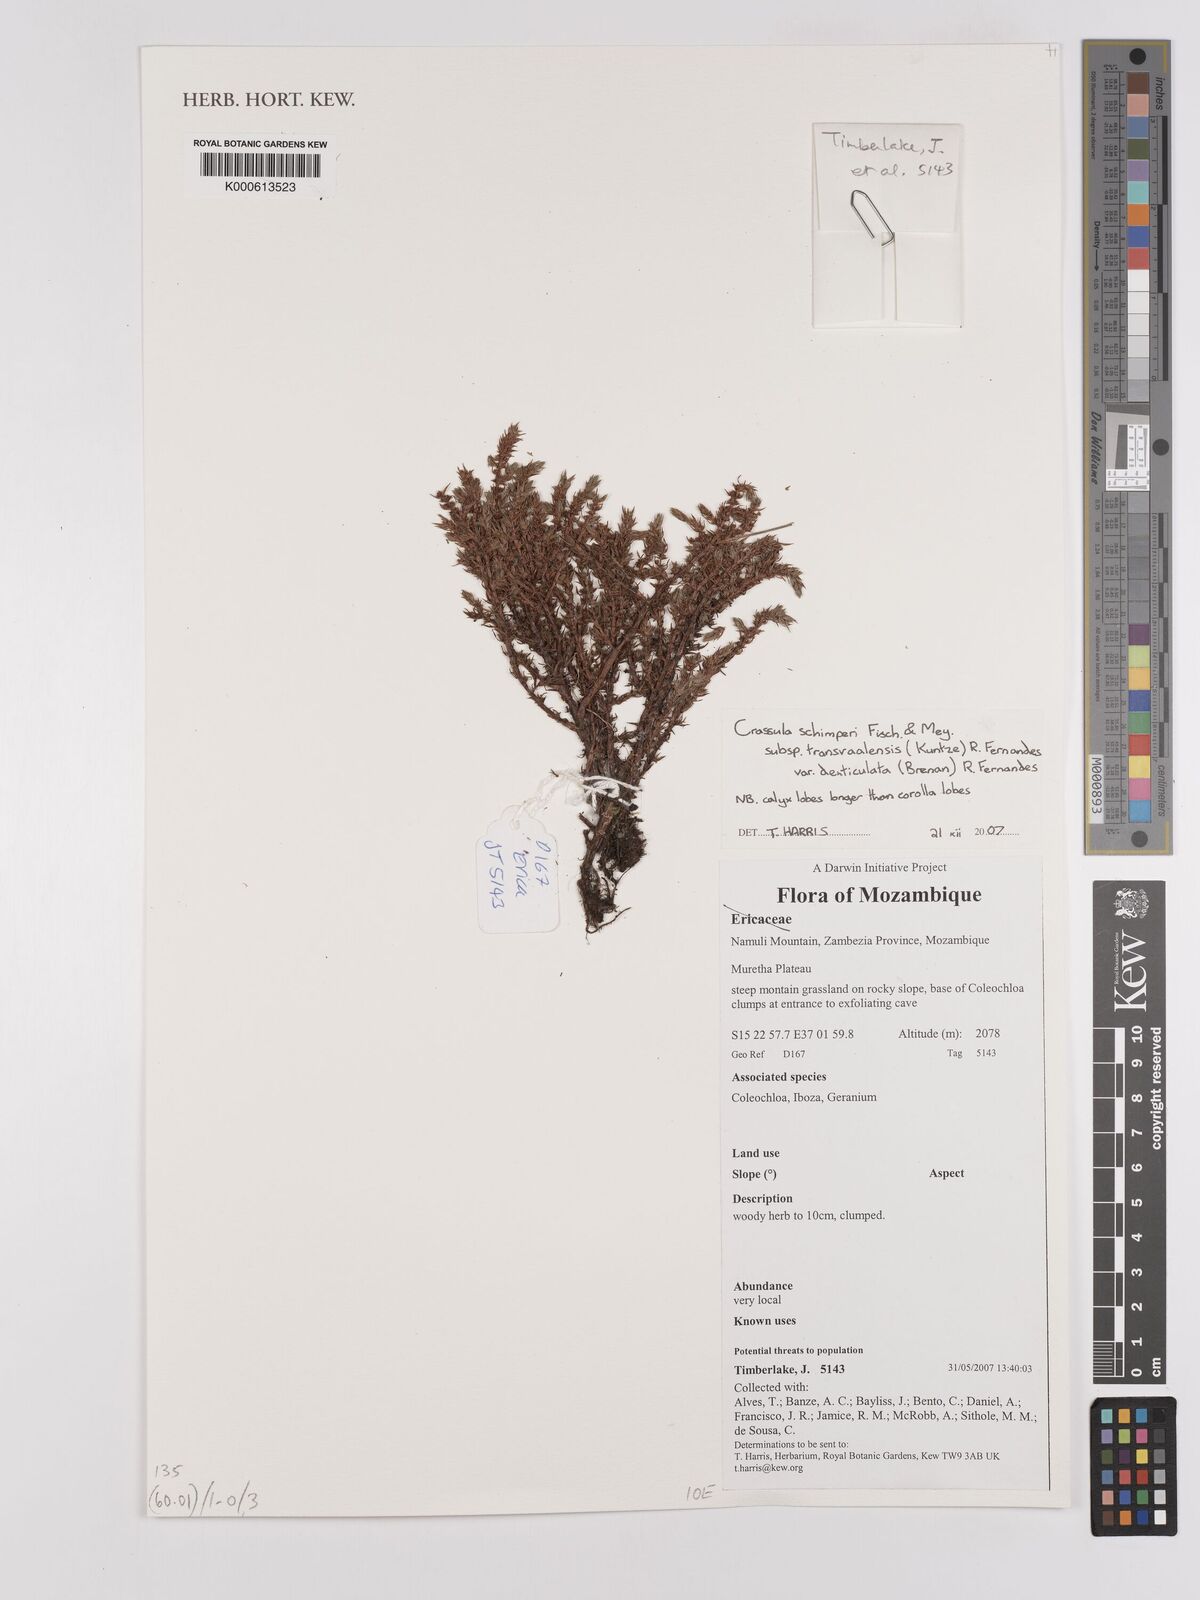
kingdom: Plantae
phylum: Tracheophyta
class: Magnoliopsida
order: Saxifragales
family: Crassulaceae
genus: Crassula
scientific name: Crassula lanceolata
